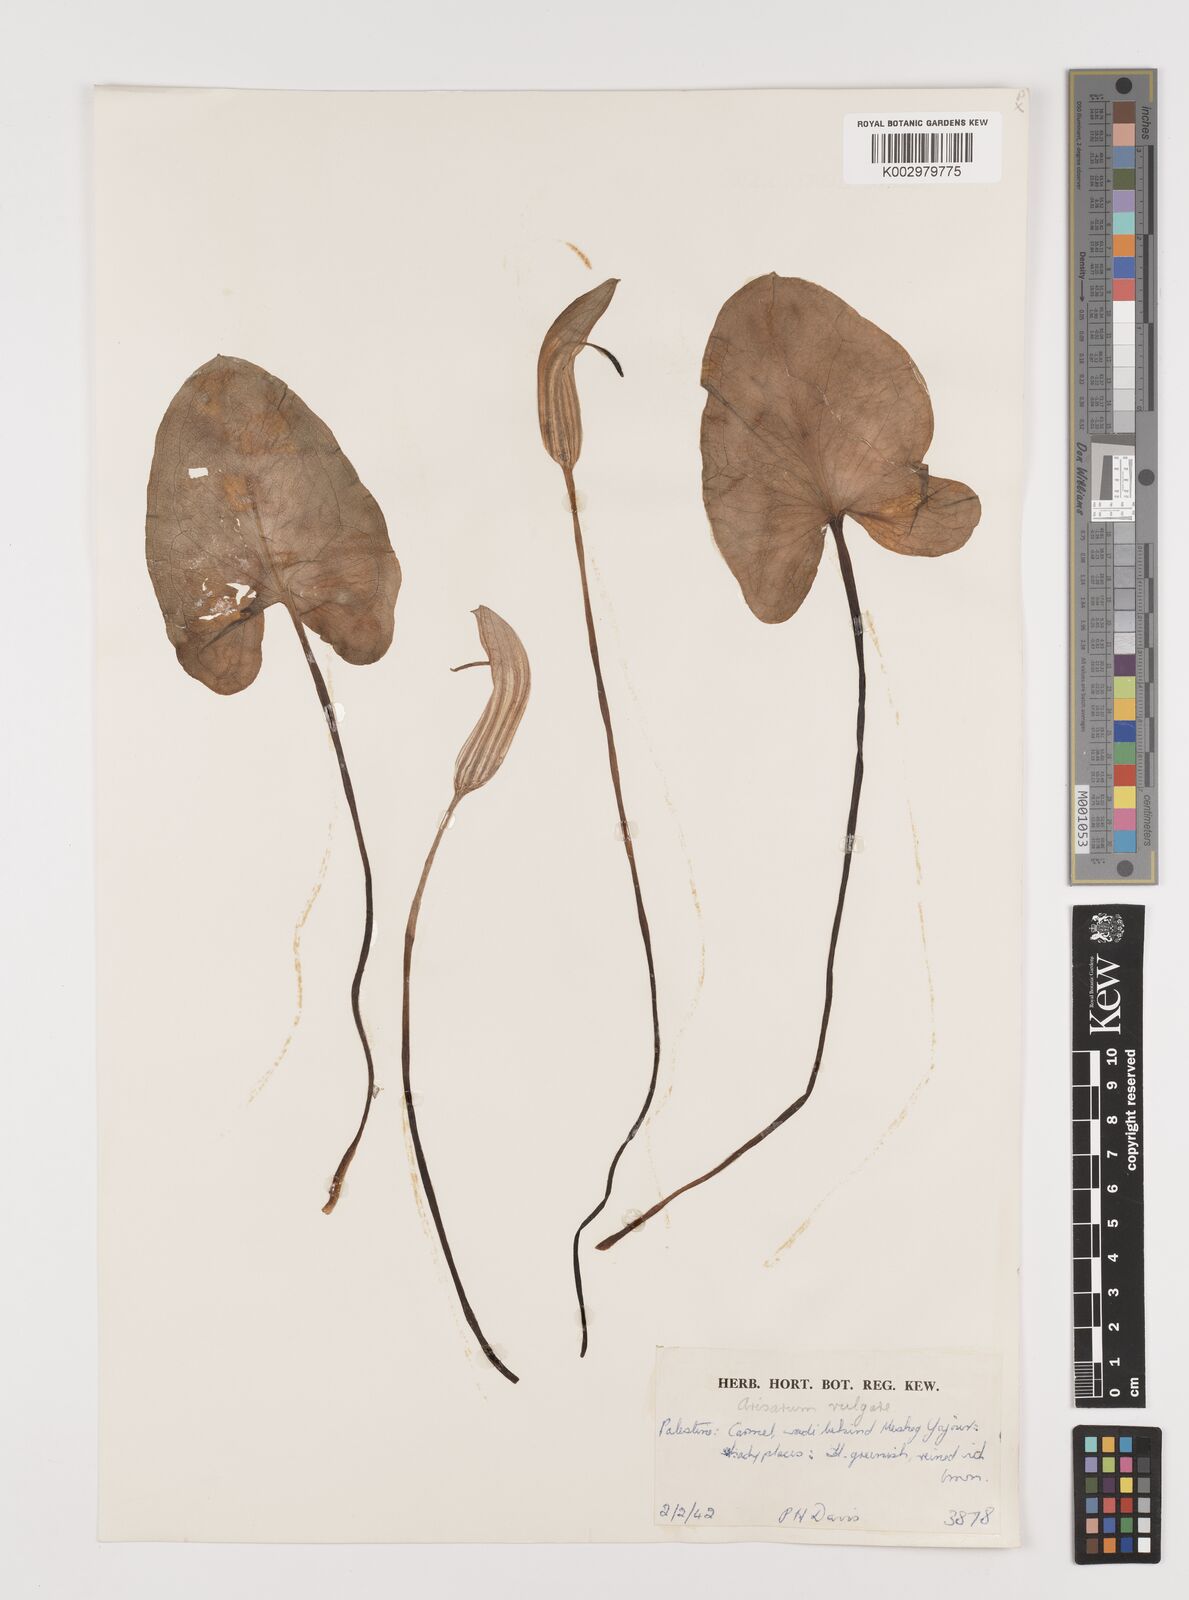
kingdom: Plantae
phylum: Tracheophyta
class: Liliopsida
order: Alismatales
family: Araceae
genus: Arisarum
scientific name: Arisarum vulgare
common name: Common arisarum
